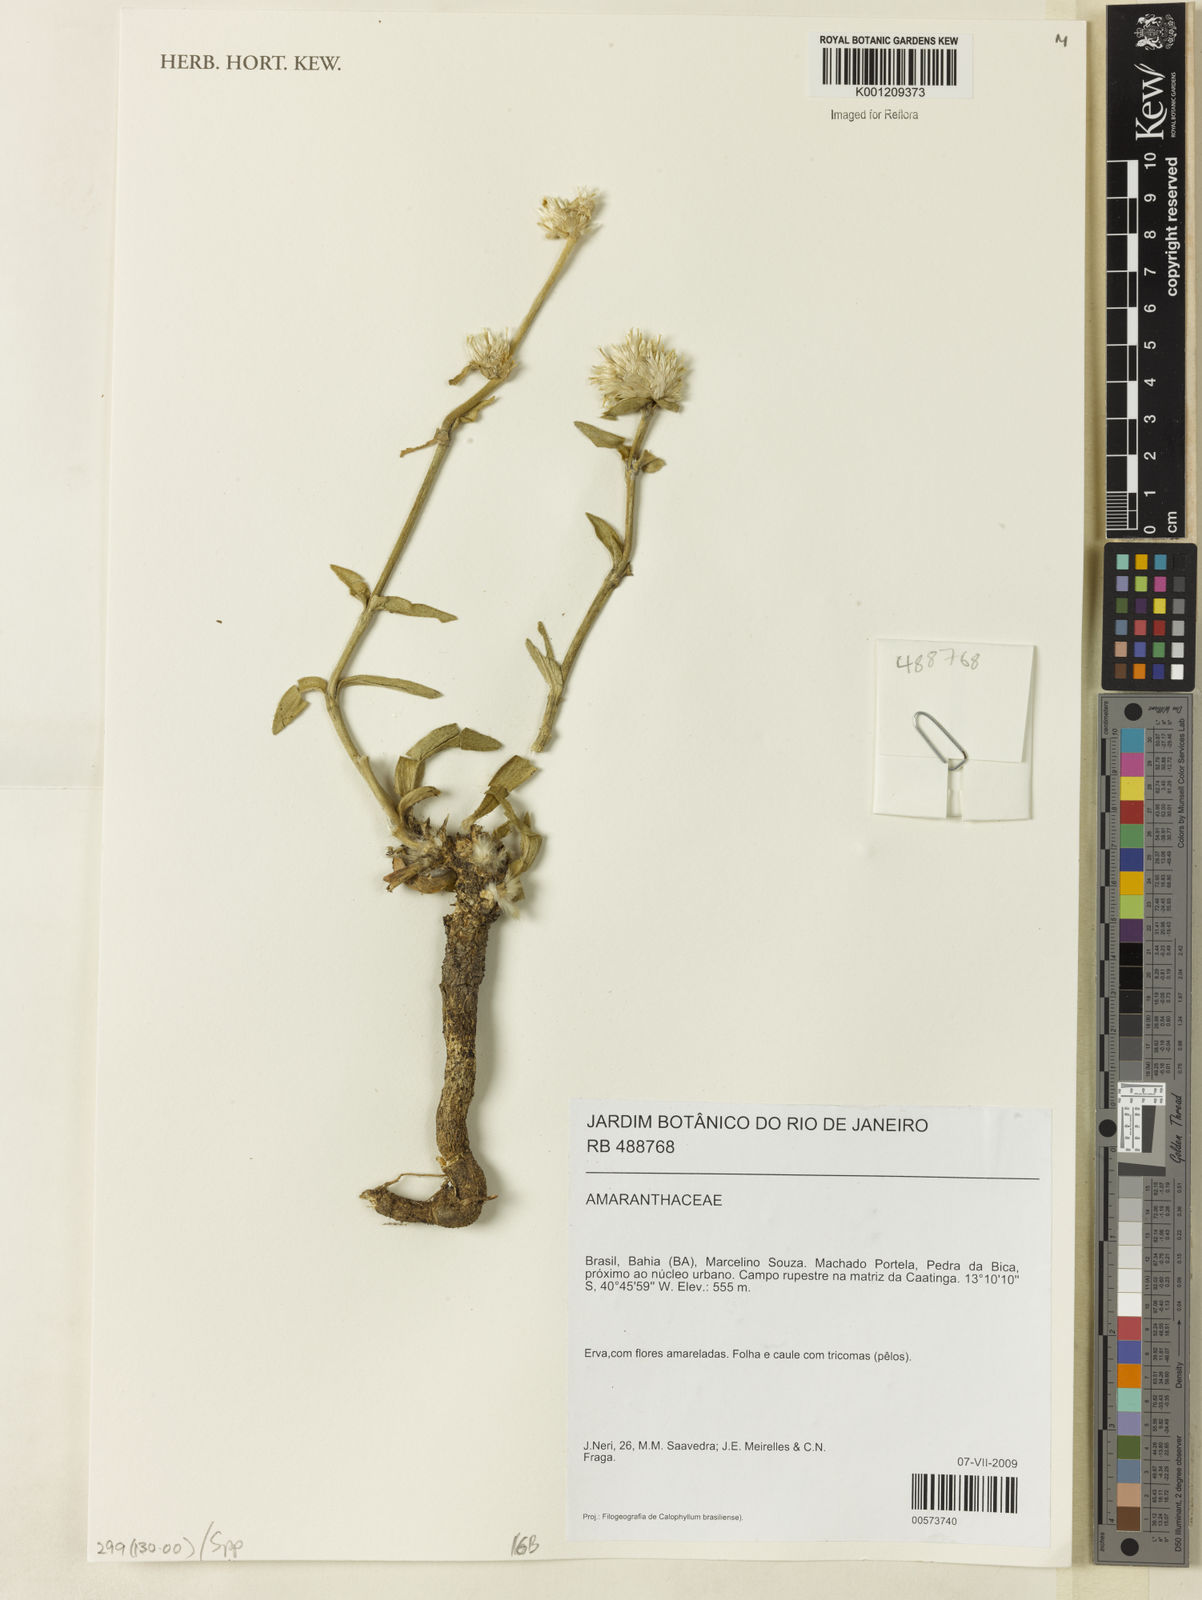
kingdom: Plantae
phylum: Tracheophyta
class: Magnoliopsida
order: Caryophyllales
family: Amaranthaceae
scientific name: Amaranthaceae
